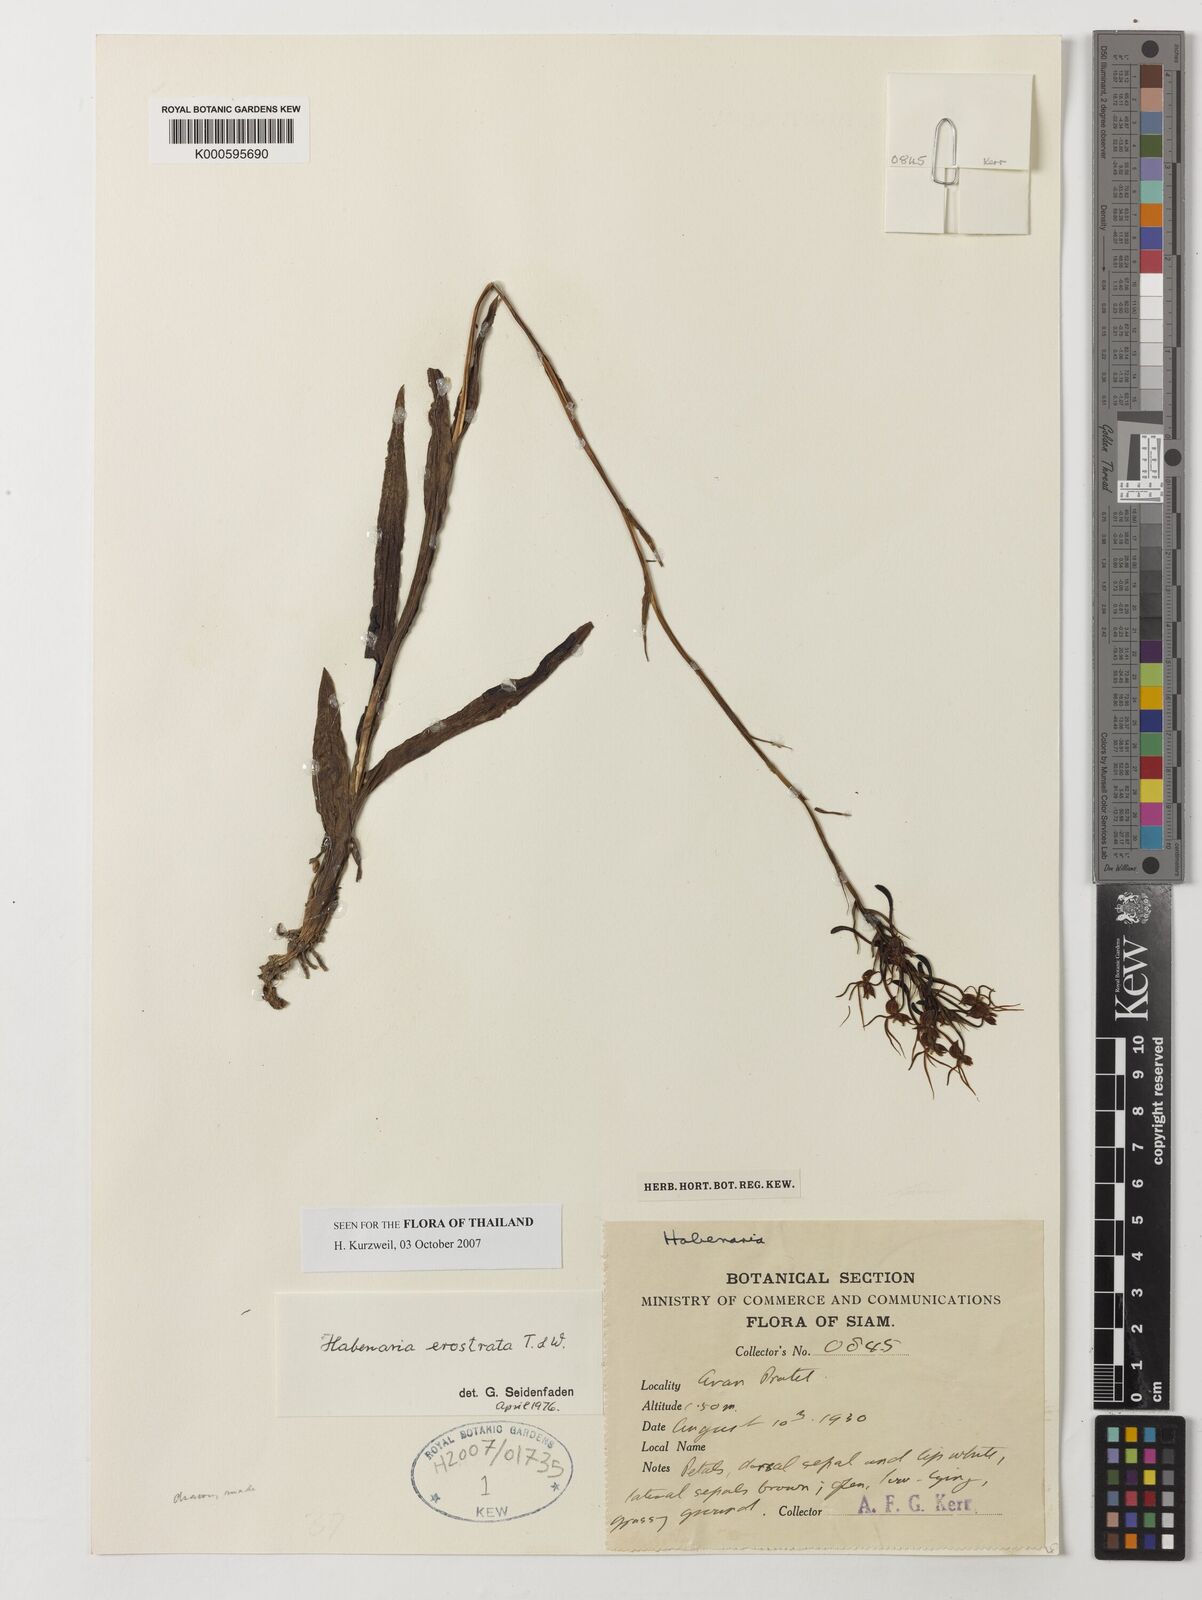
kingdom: Plantae
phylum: Tracheophyta
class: Liliopsida
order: Asparagales
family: Orchidaceae
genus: Habenaria
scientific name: Habenaria erostrata
